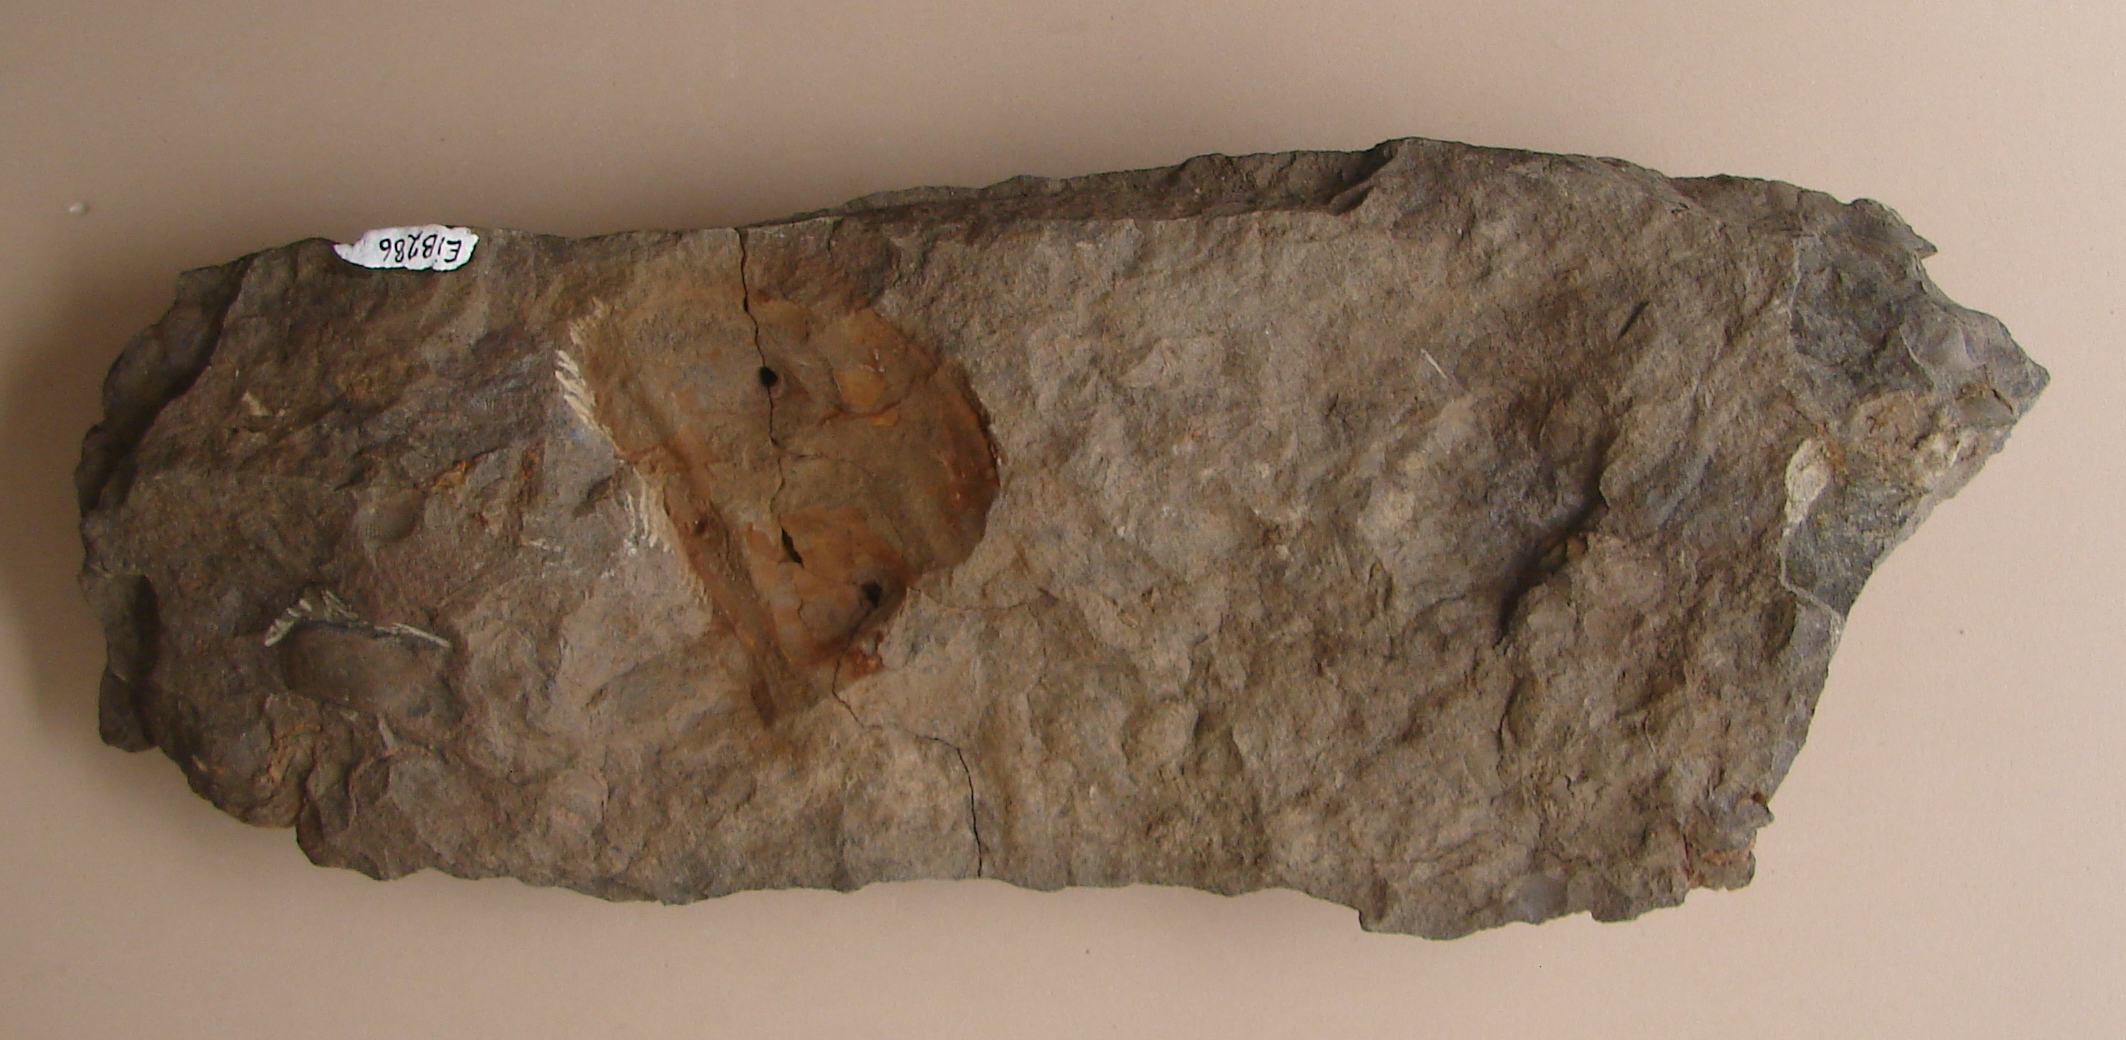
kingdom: Animalia
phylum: Arthropoda
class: Trilobita
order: Phacopida
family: Bathycheilidae
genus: Burmeisterella
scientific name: Burmeisterella
